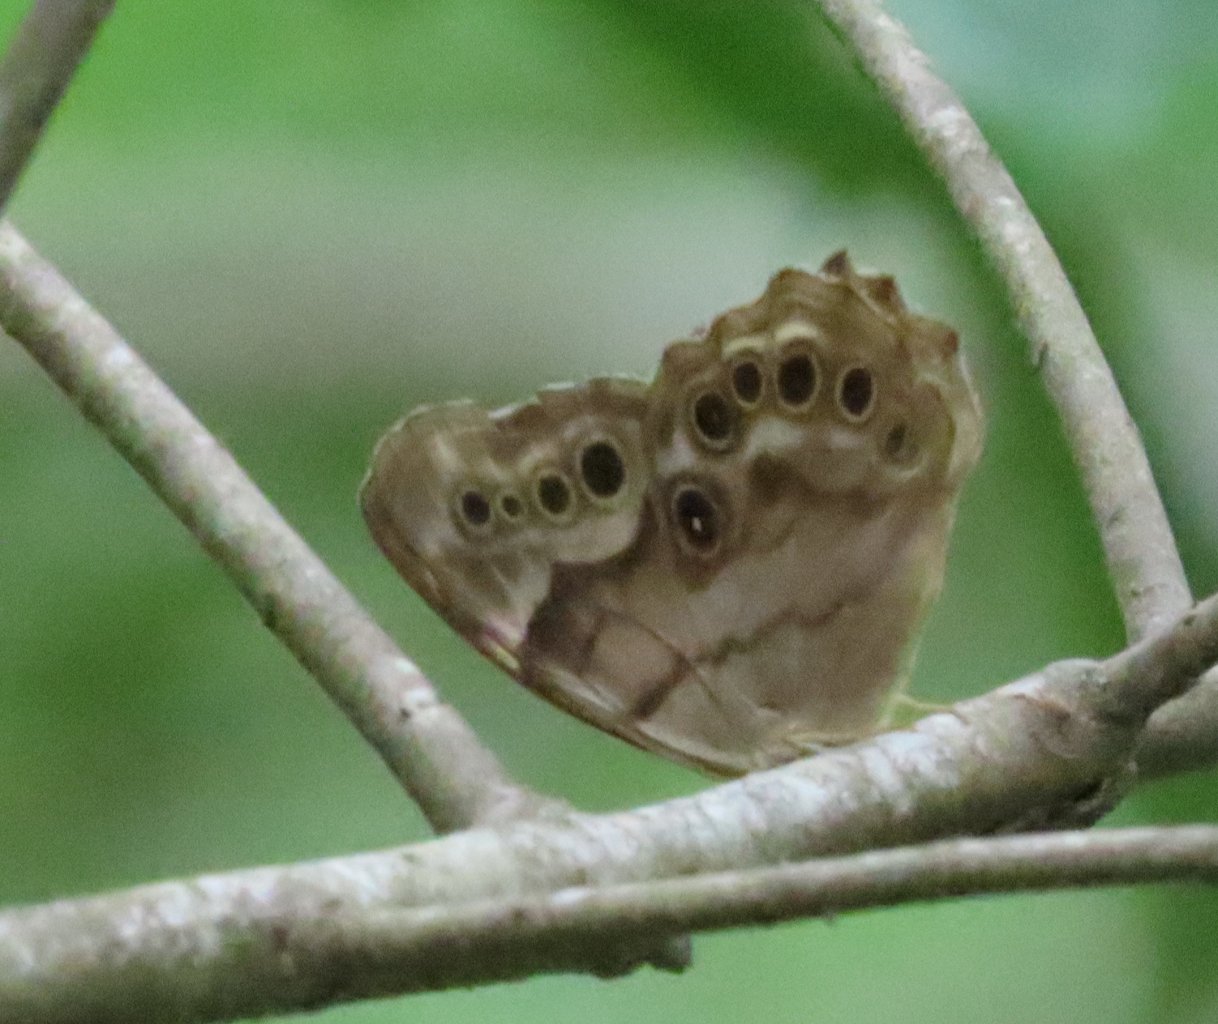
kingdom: Animalia
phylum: Arthropoda
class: Insecta
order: Lepidoptera
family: Nymphalidae
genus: Enodia
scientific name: Enodia portlandia
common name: Southern Pearly Eye
